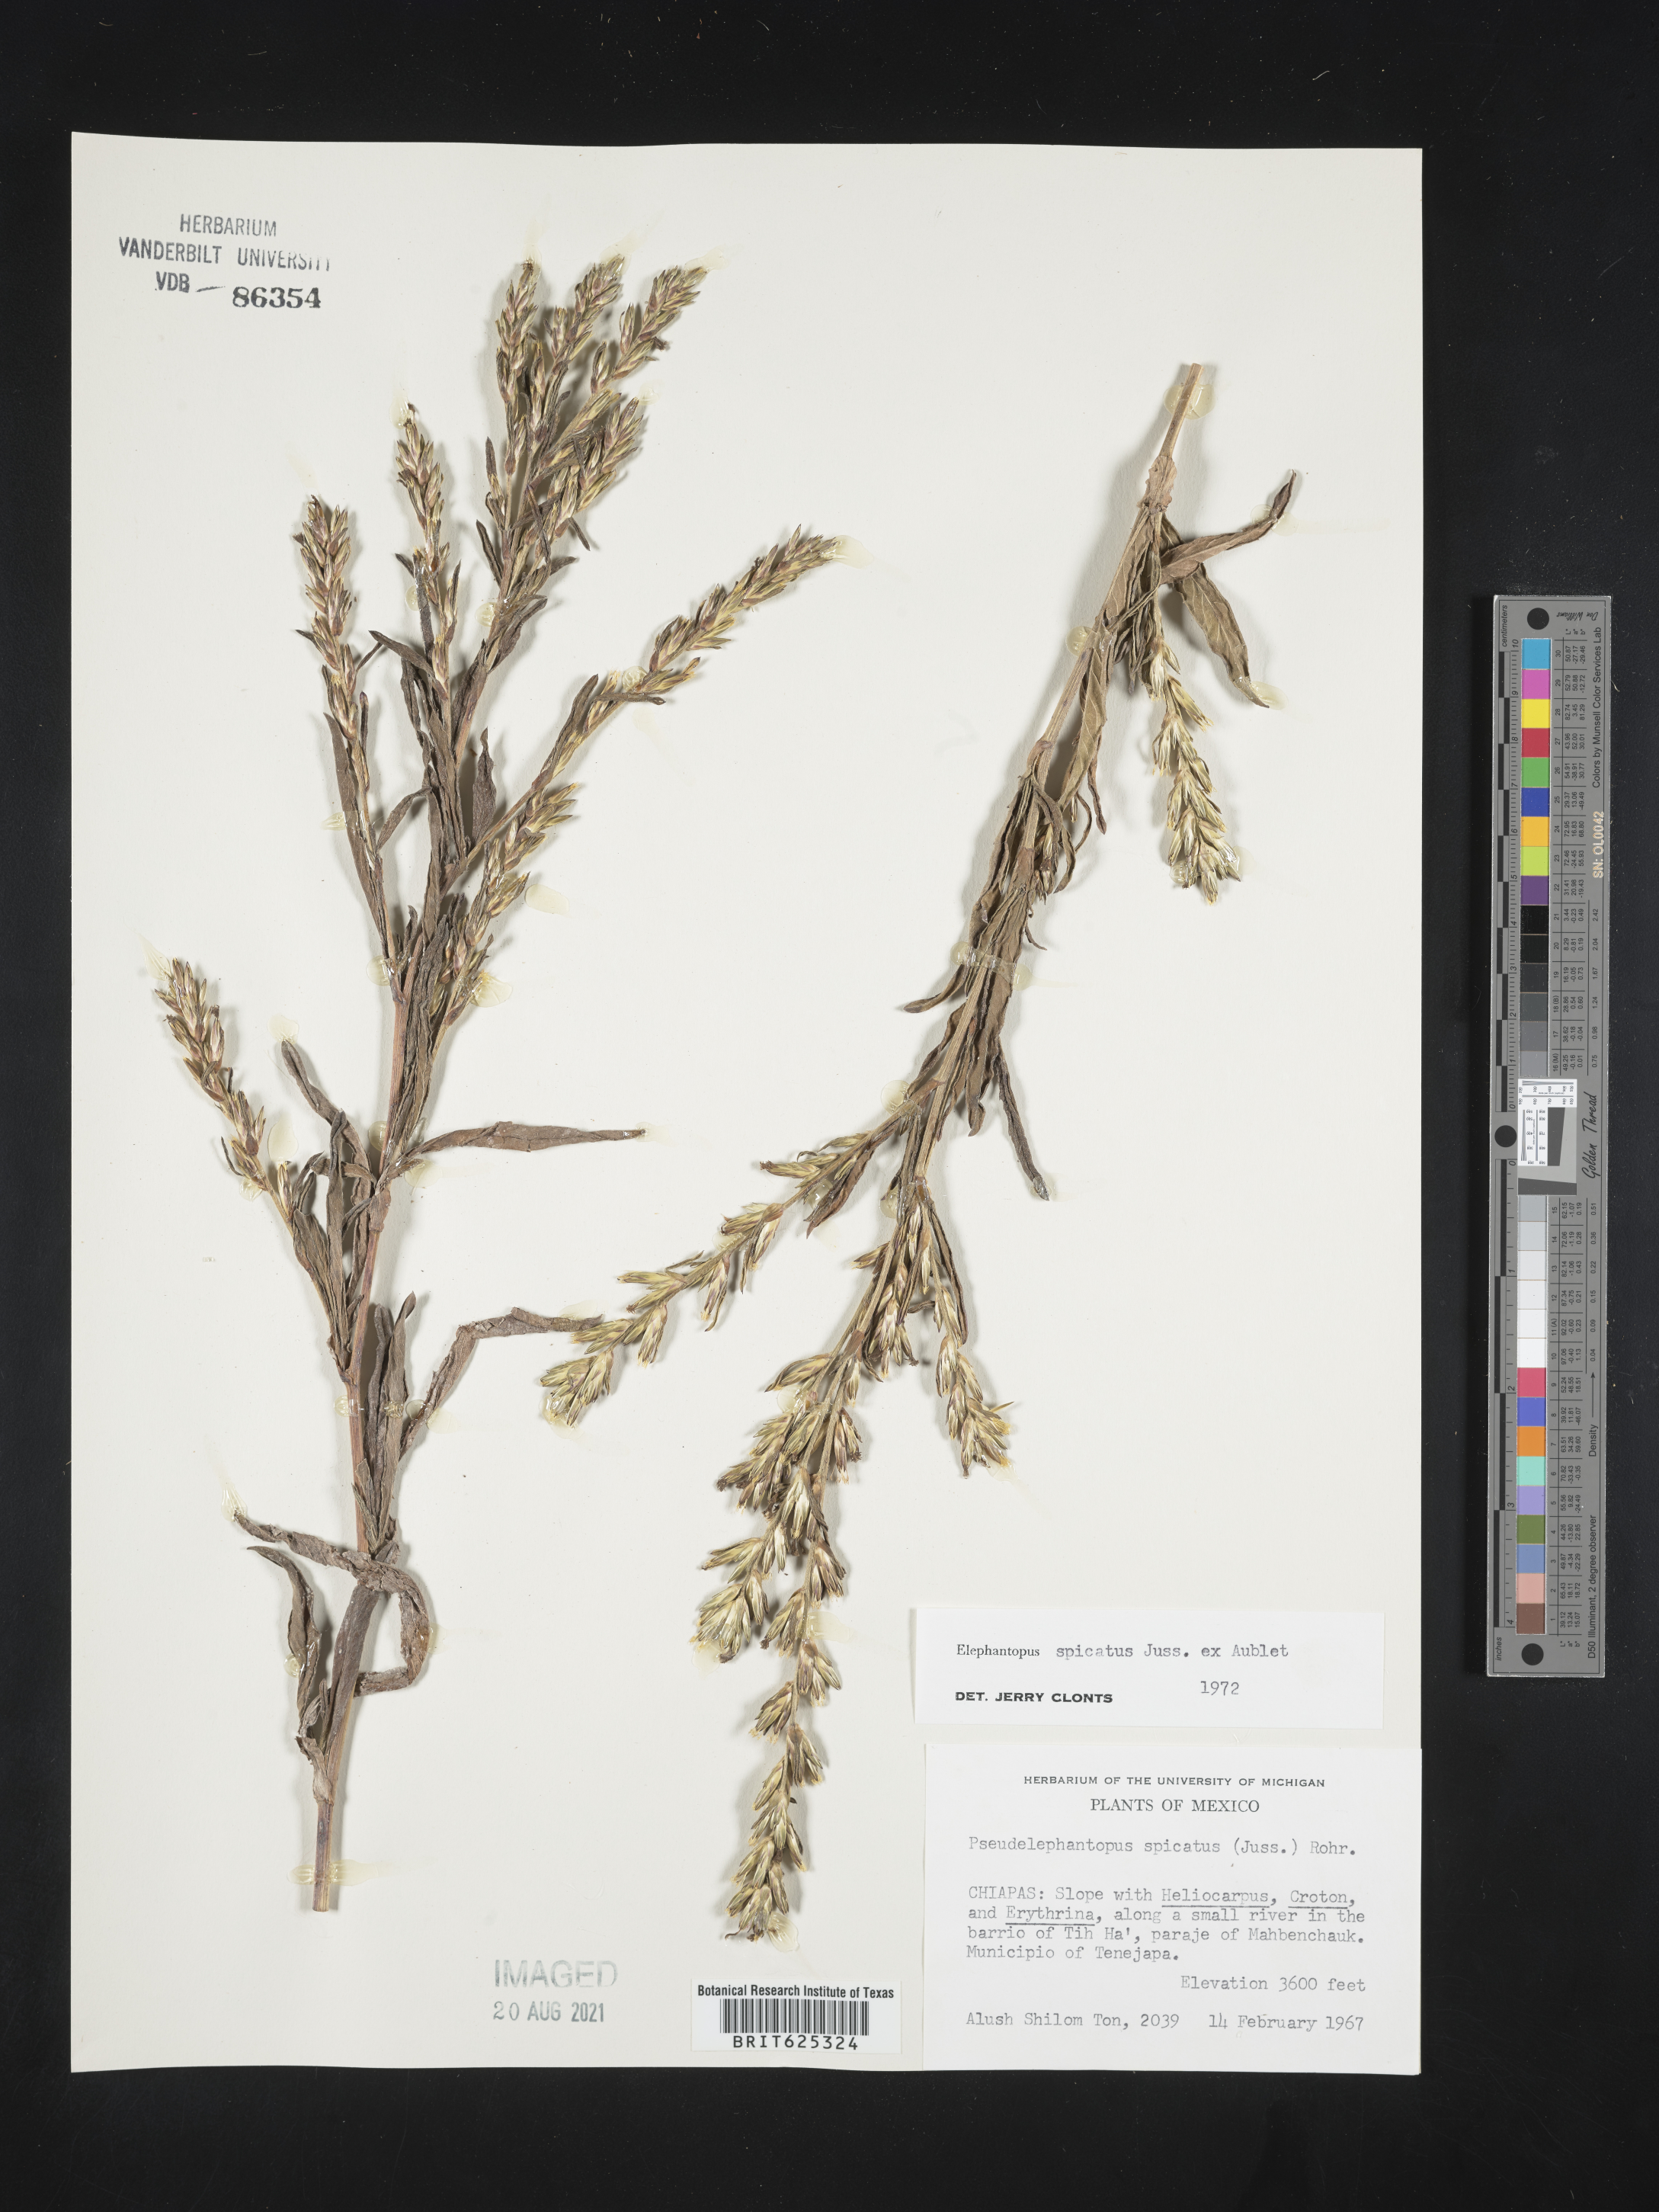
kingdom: Plantae
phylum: Tracheophyta
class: Magnoliopsida
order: Asterales
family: Asteraceae
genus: Elephantopus
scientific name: Elephantopus
